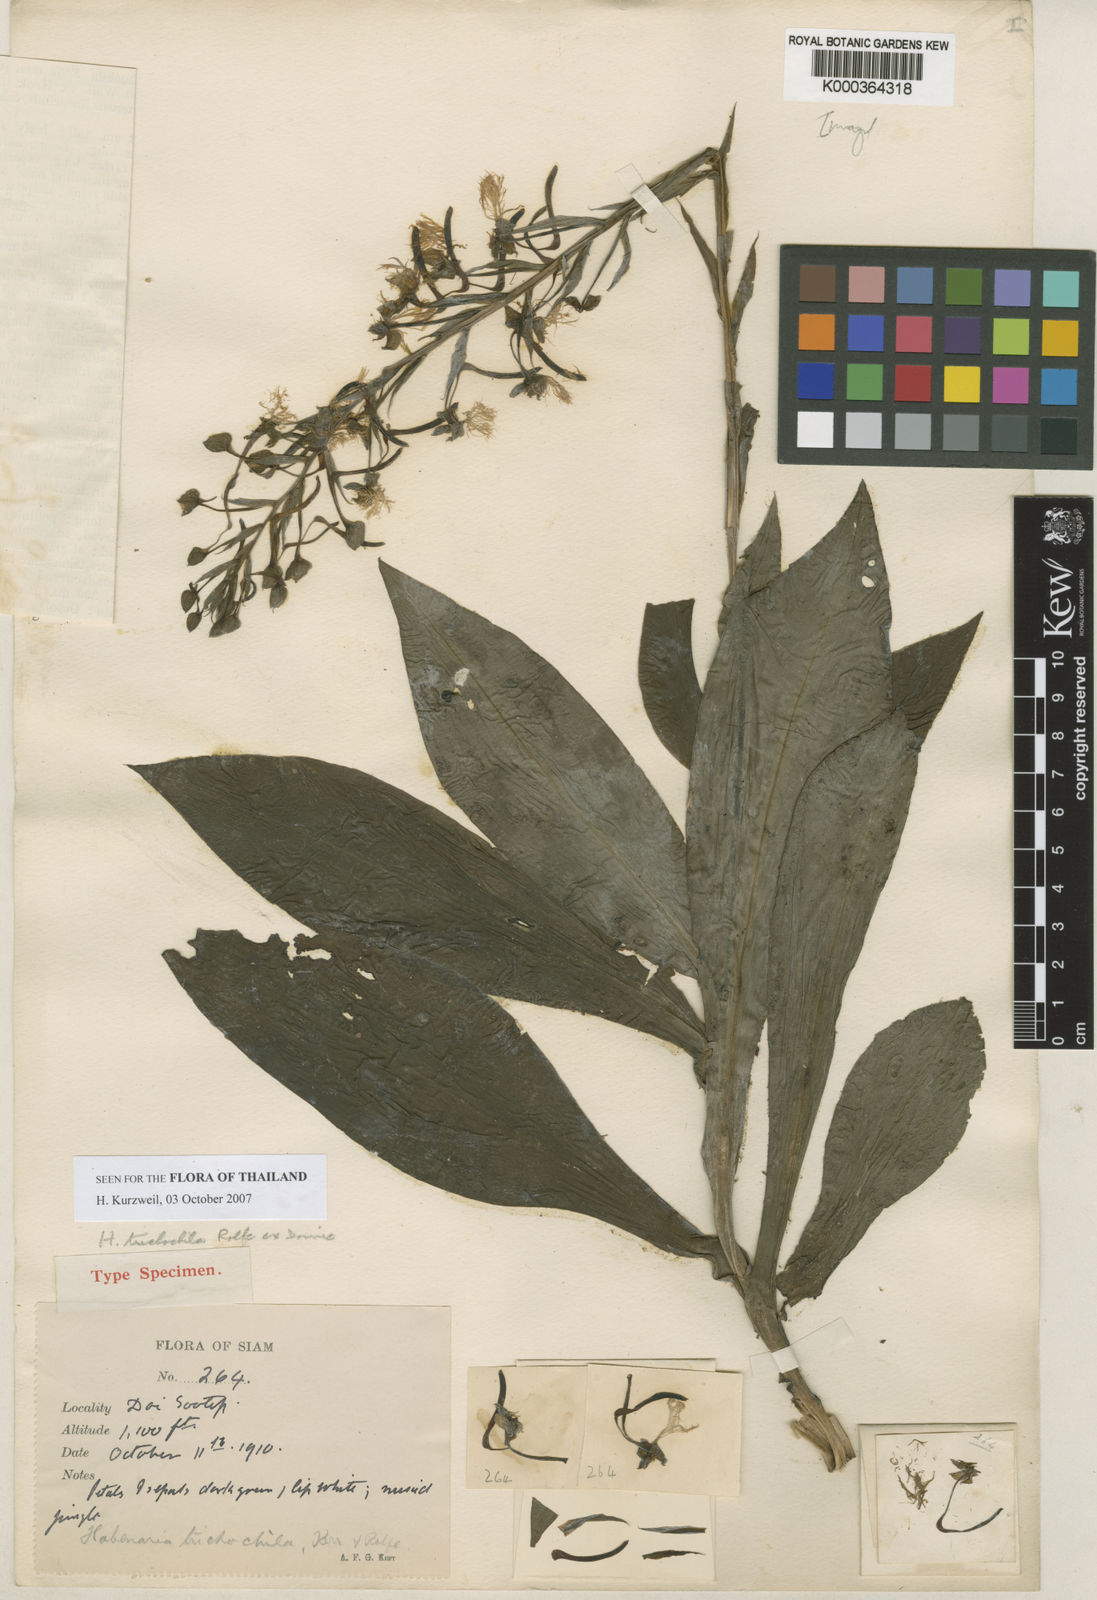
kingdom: Plantae
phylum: Tracheophyta
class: Liliopsida
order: Asparagales
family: Orchidaceae
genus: Habenaria
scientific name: Habenaria medioflexa
